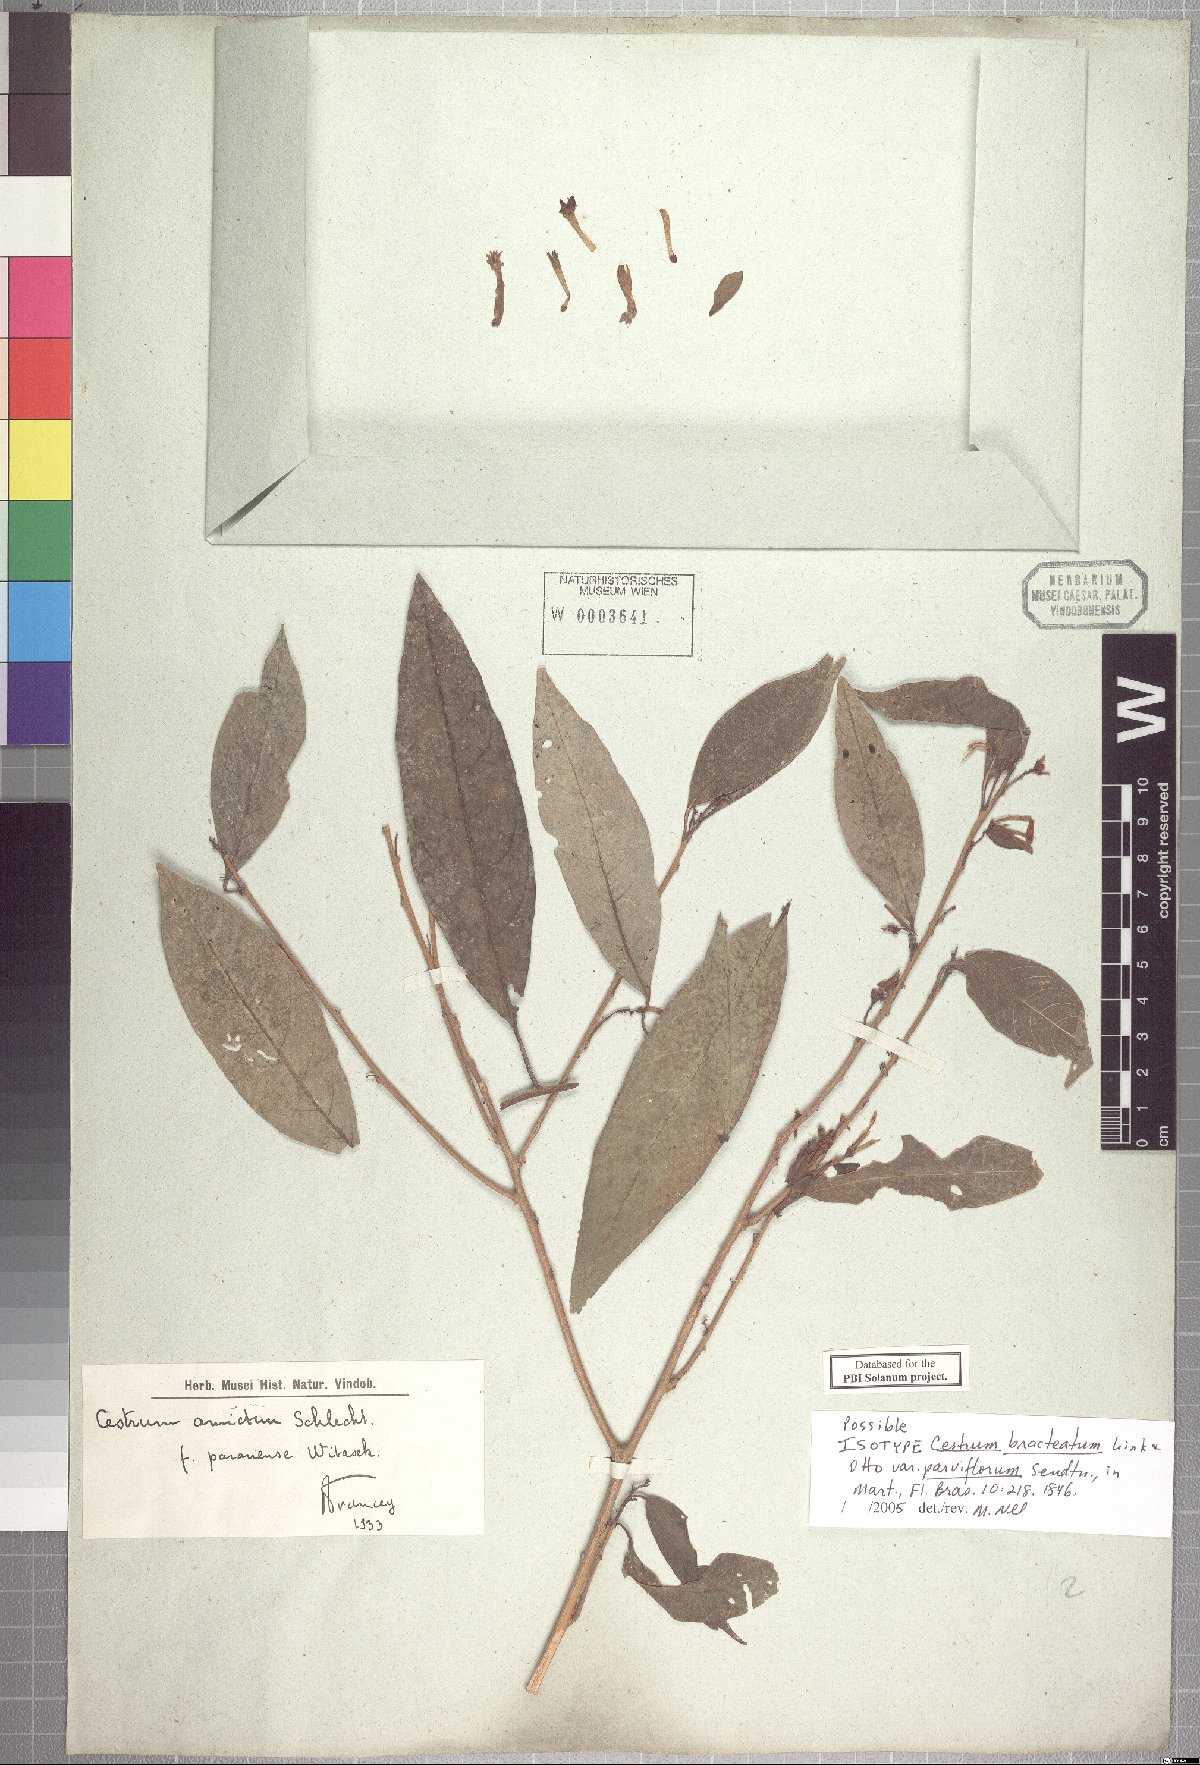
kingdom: Plantae
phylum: Tracheophyta
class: Magnoliopsida
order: Solanales
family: Solanaceae
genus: Cestrum
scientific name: Cestrum bracteatum
